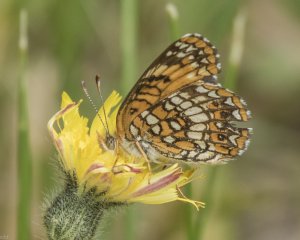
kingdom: Animalia
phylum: Arthropoda
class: Insecta
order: Lepidoptera
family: Nymphalidae
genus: Chlosyne
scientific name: Chlosyne harrisii
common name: Harris's Checkerspot
